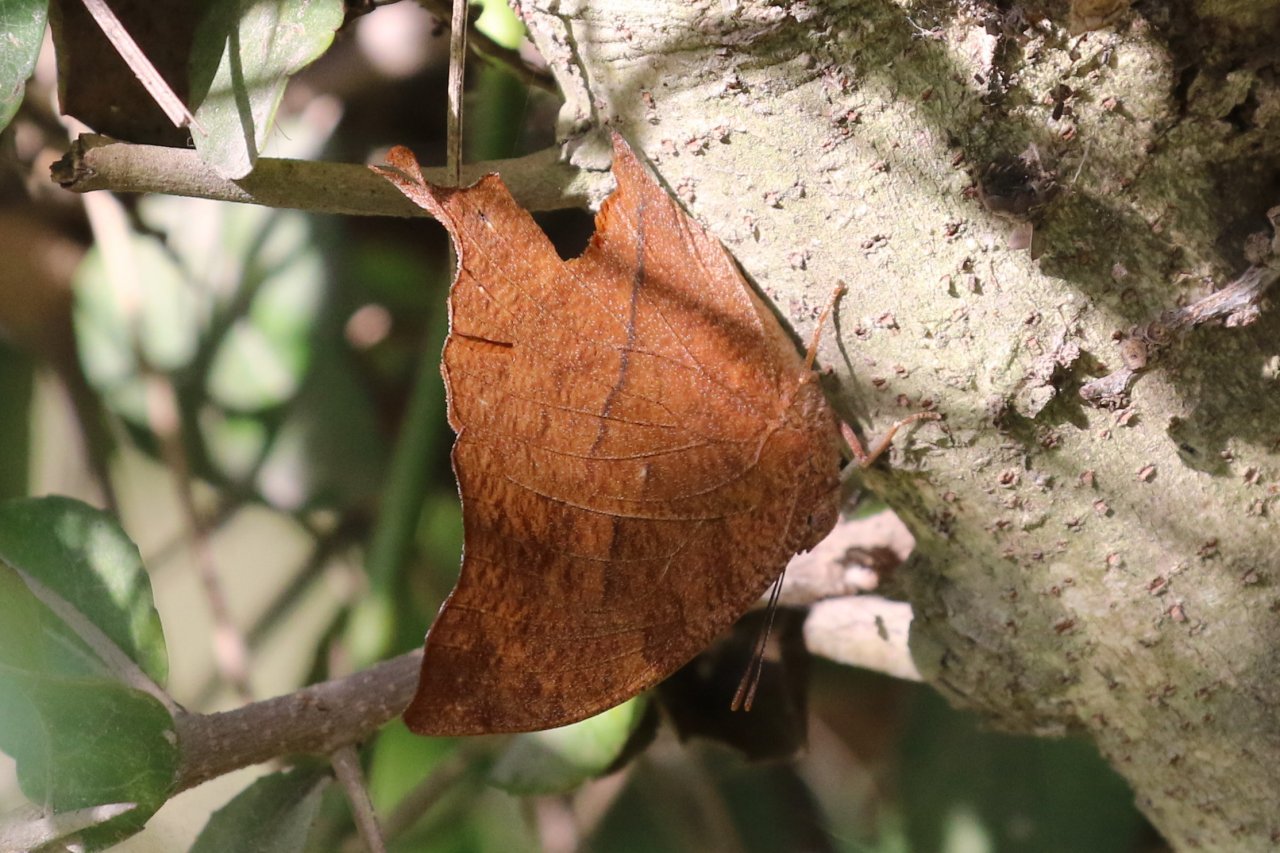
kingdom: Animalia
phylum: Arthropoda
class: Insecta
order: Lepidoptera
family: Nymphalidae
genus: Fountainea
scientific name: Fountainea
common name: Angled Leafwing
